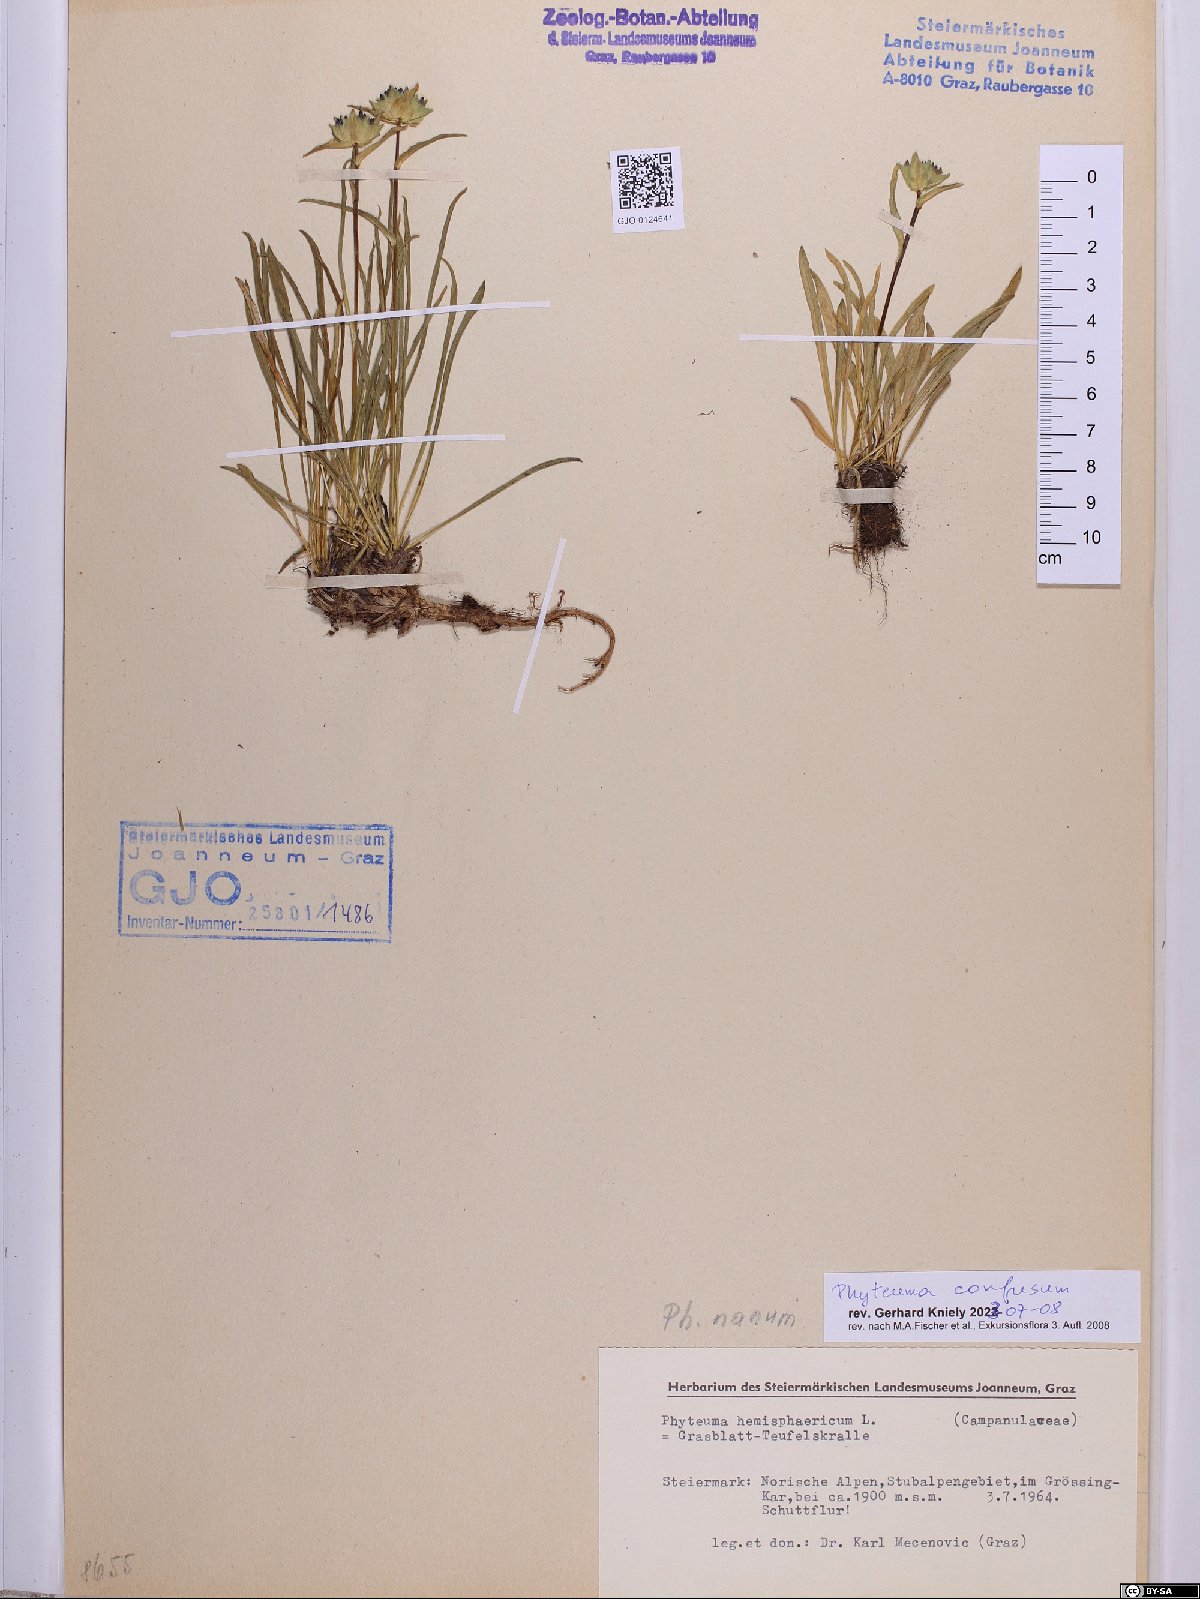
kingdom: Plantae
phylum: Tracheophyta
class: Magnoliopsida
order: Asterales
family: Campanulaceae
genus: Phyteuma
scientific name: Phyteuma confusum
